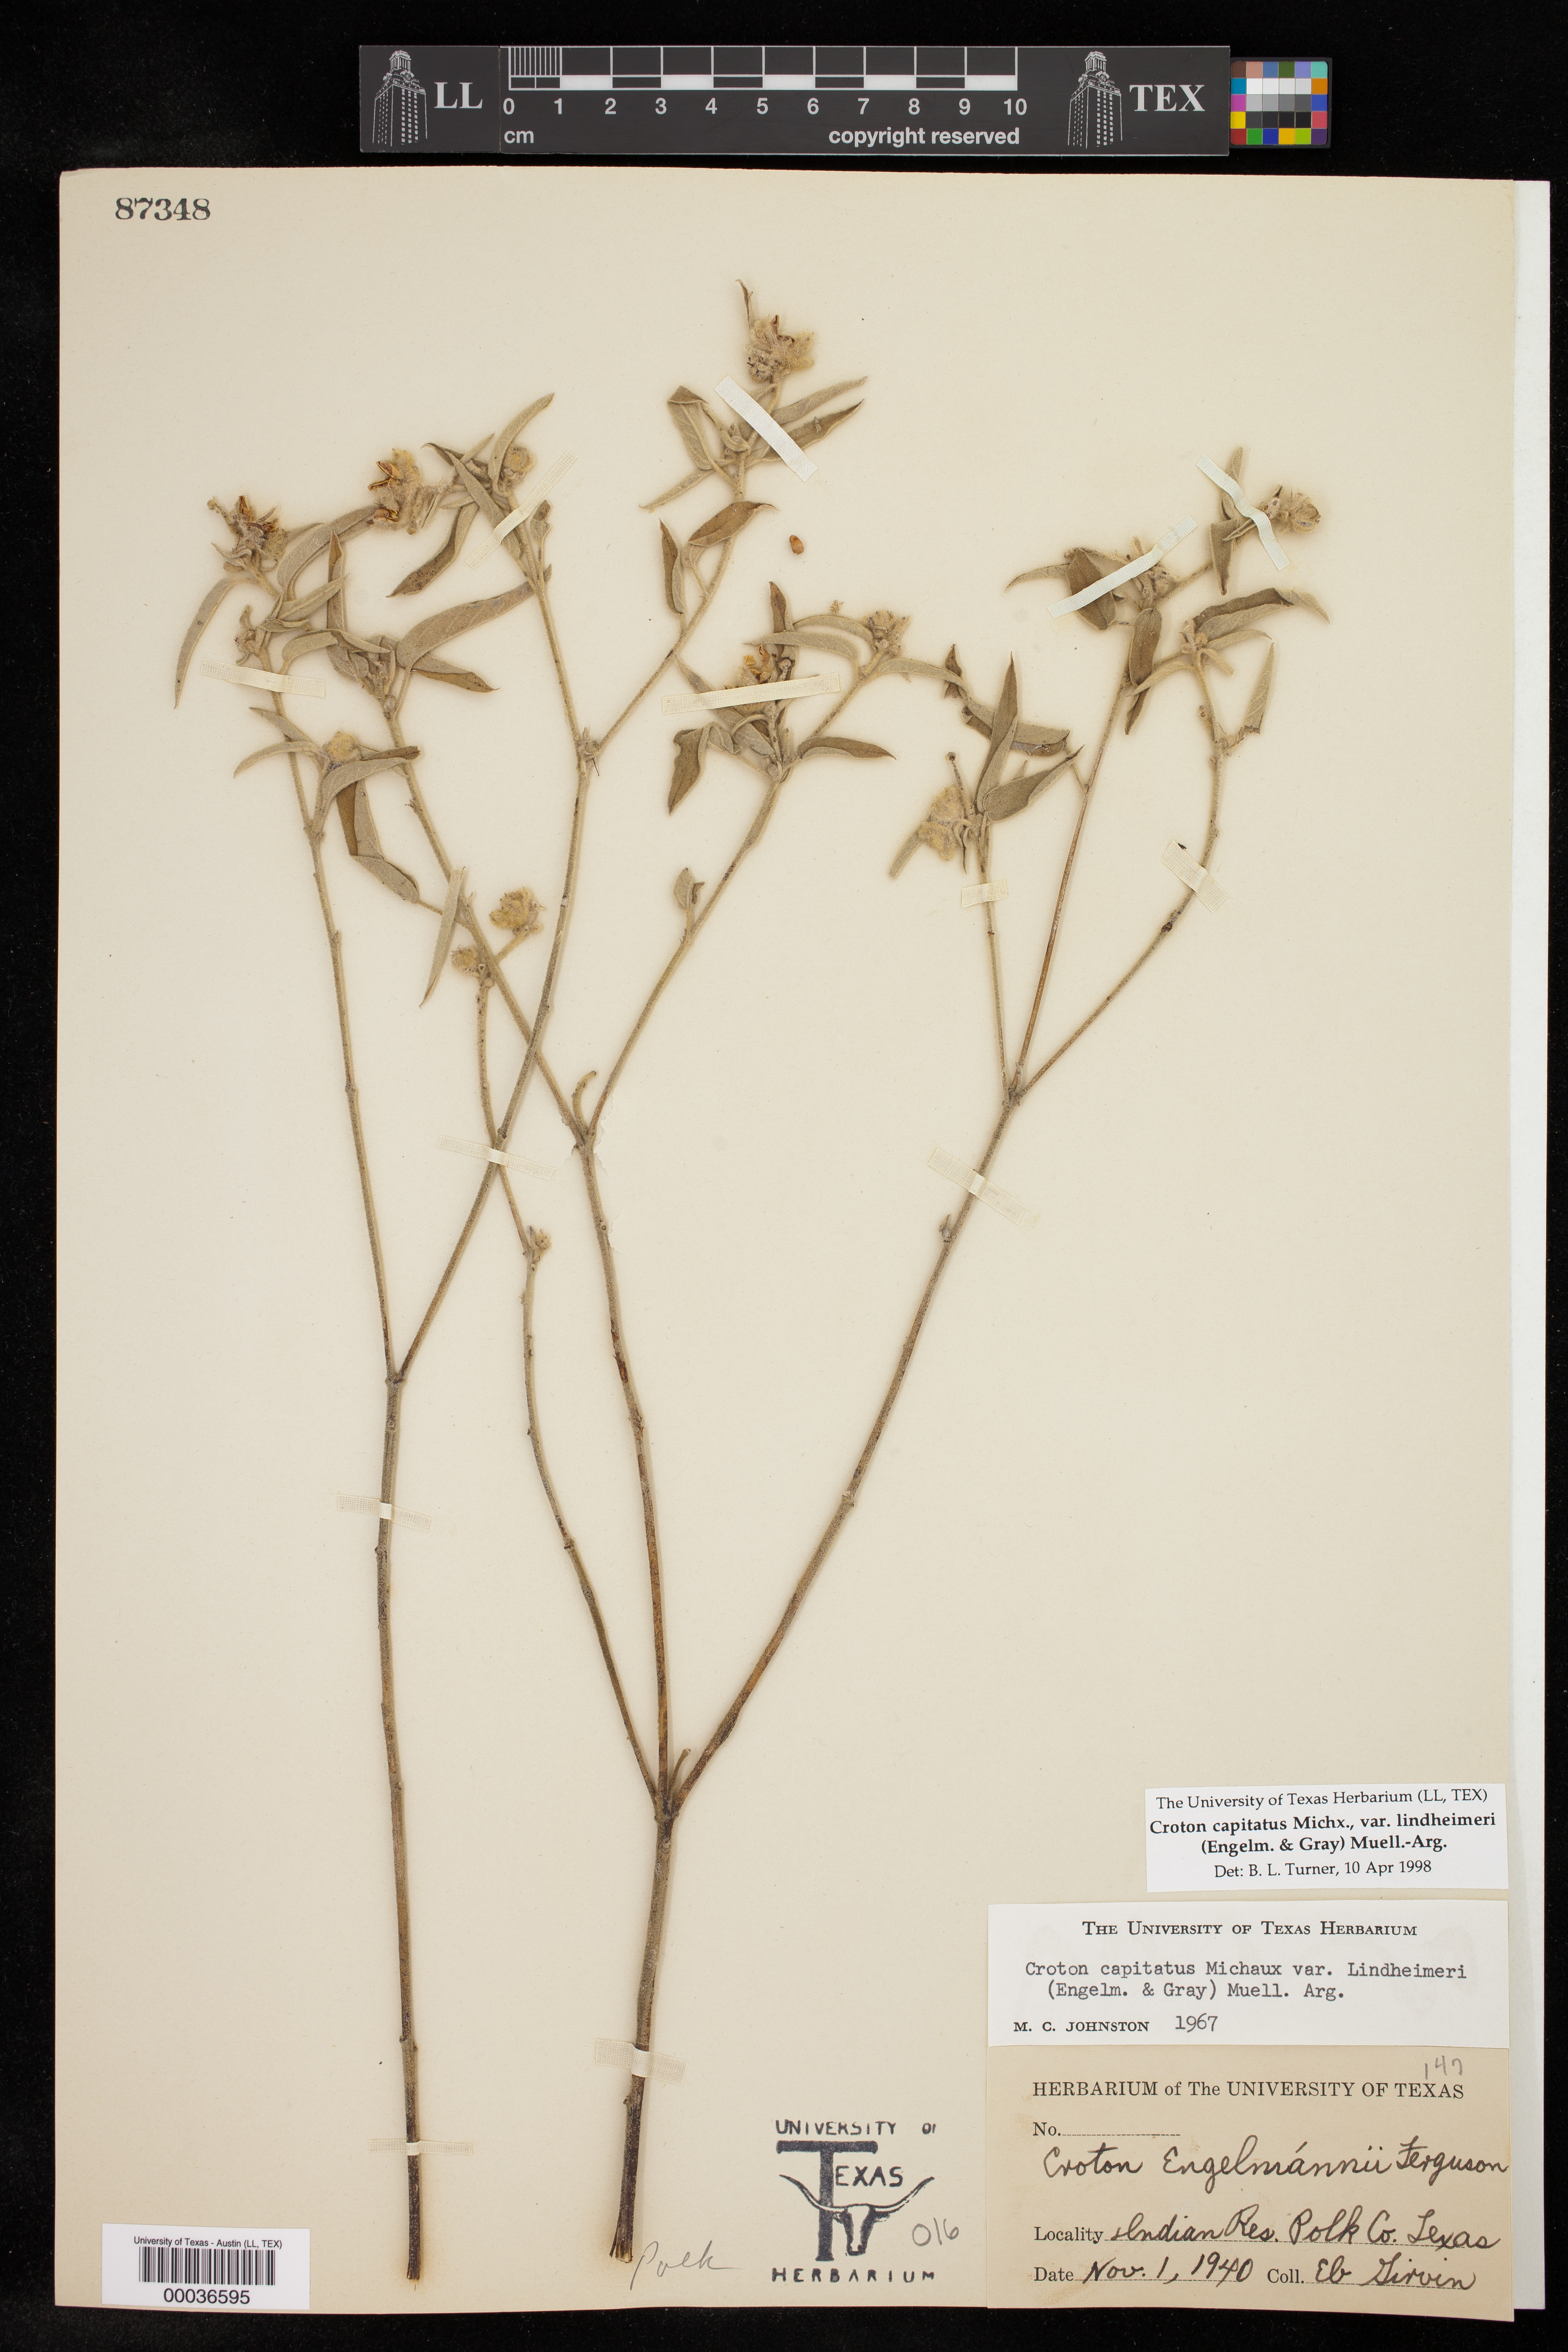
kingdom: Plantae
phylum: Tracheophyta
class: Magnoliopsida
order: Malpighiales
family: Euphorbiaceae
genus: Croton
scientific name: Croton lindheimeri
